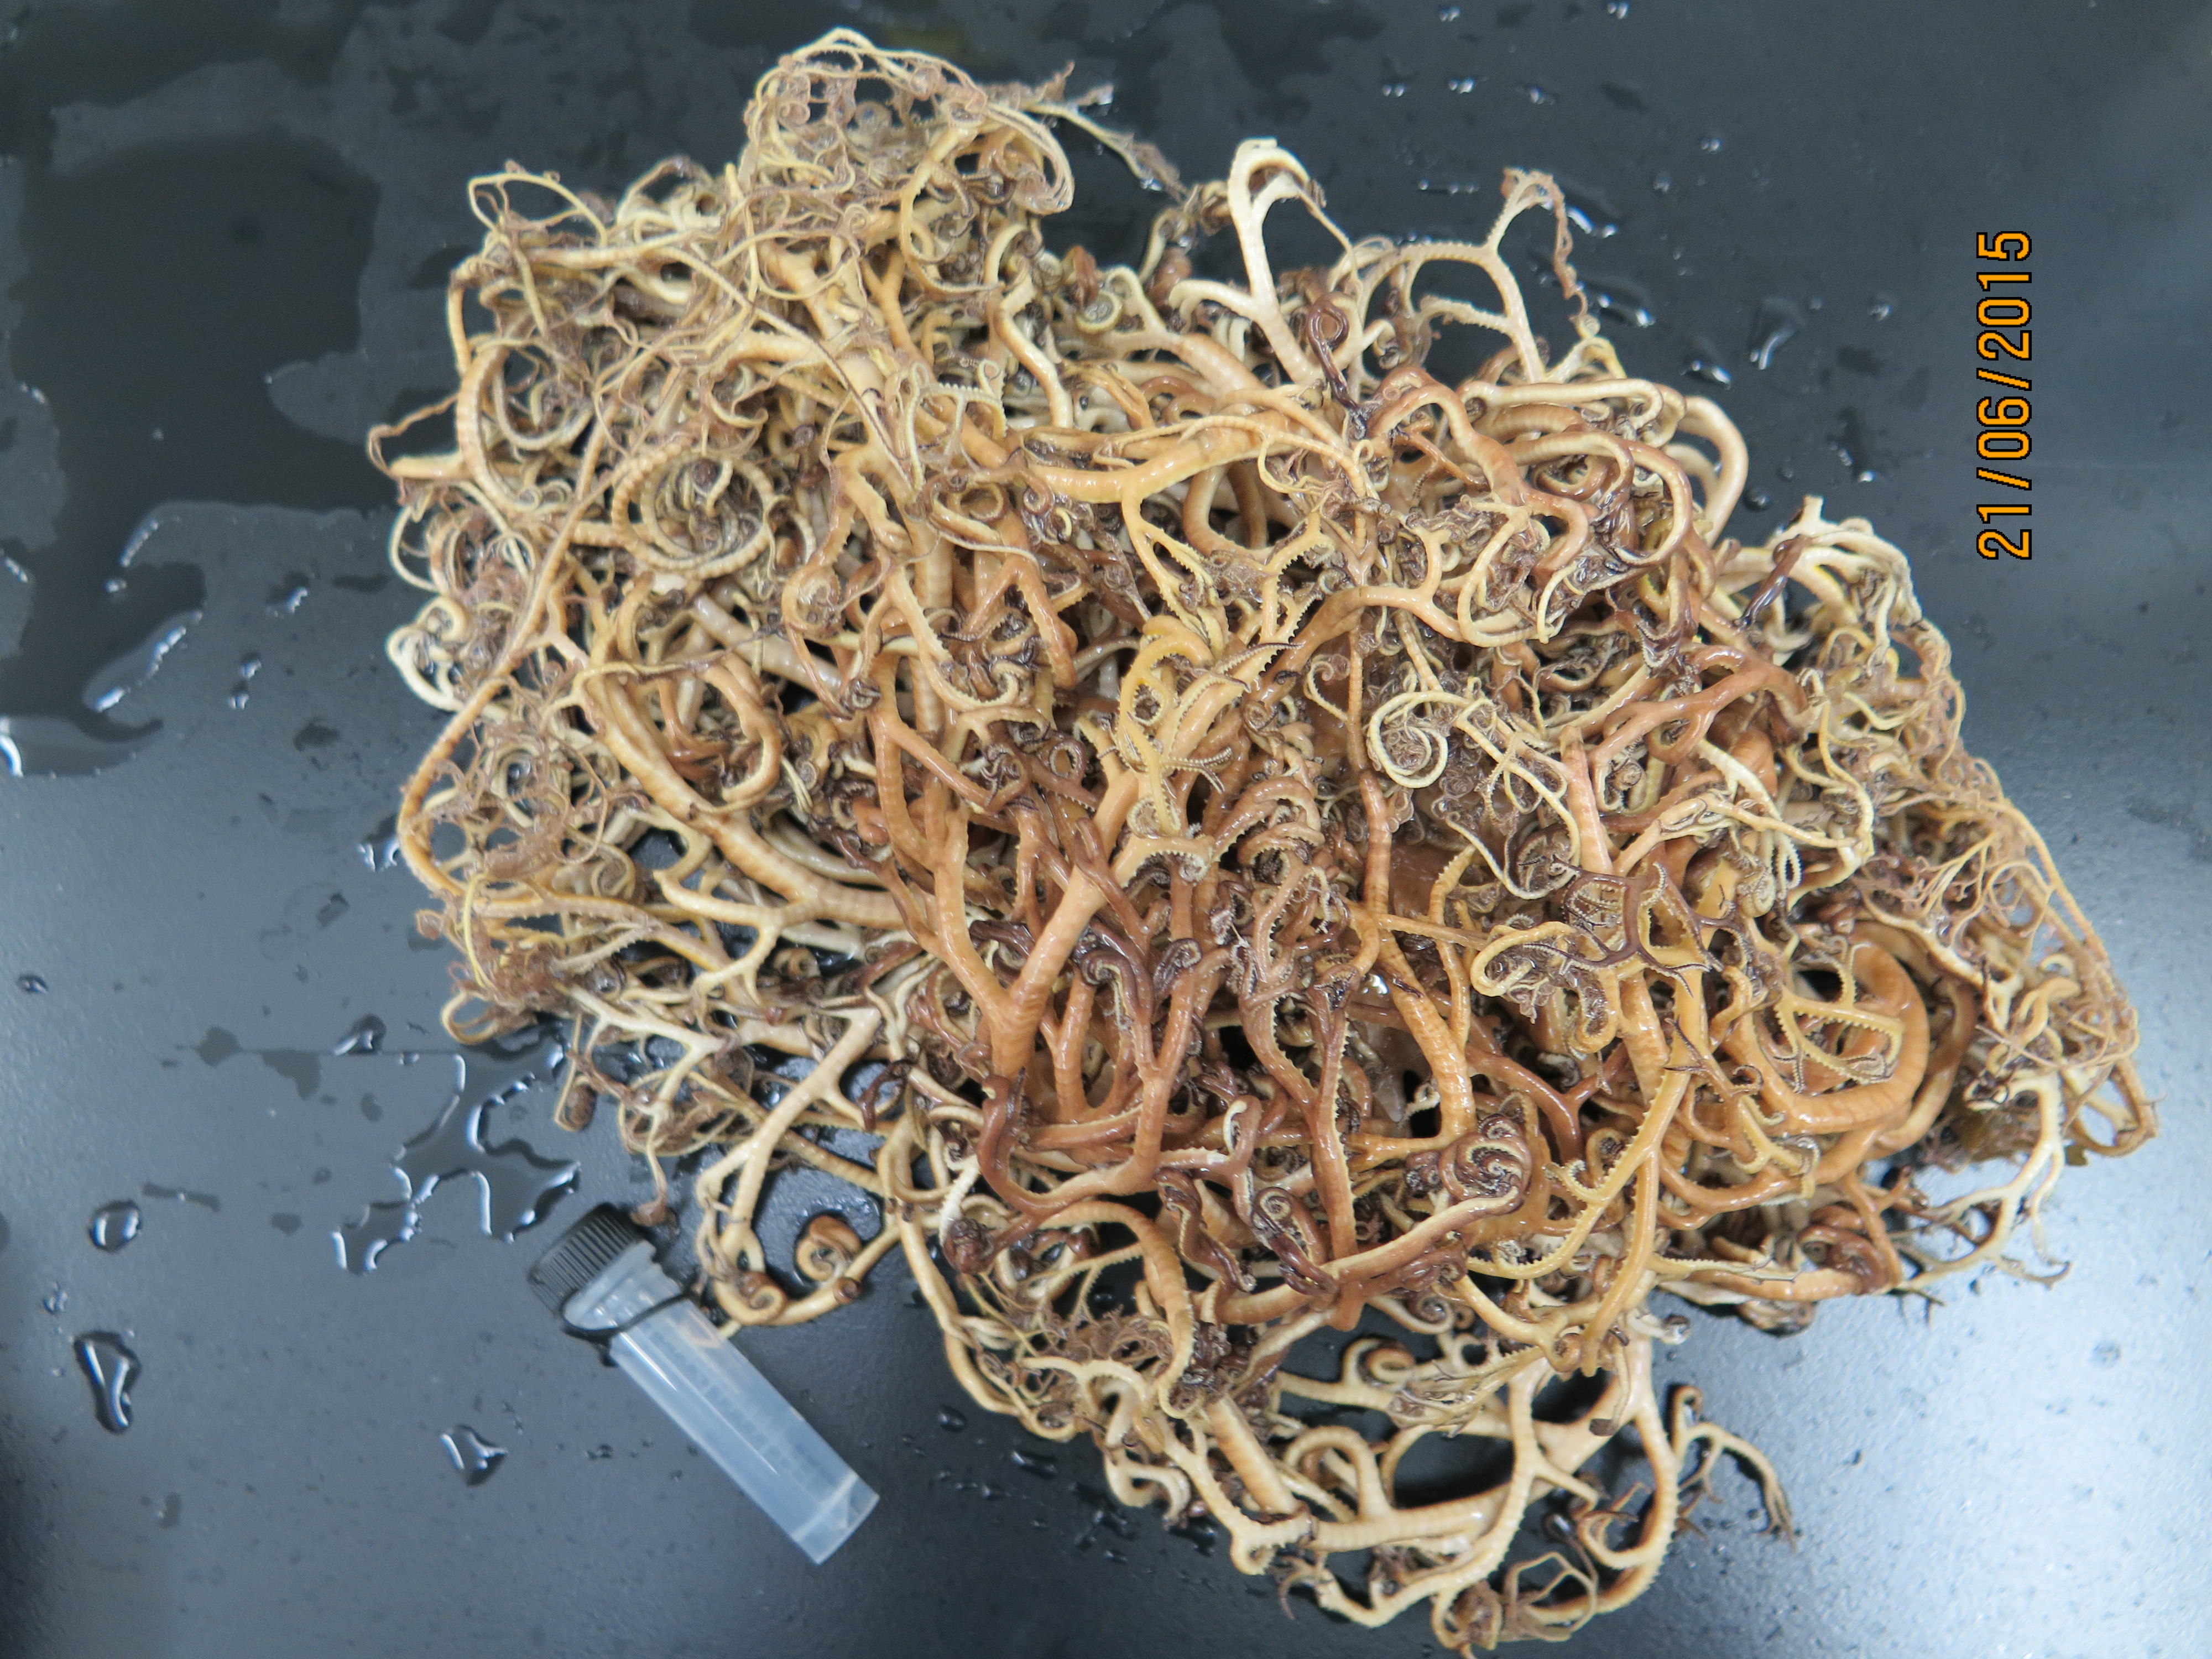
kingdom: Animalia
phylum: Echinodermata
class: Holothuroidea
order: Holothuriida
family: Holothuriidae
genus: Holothuria
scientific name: Holothuria
